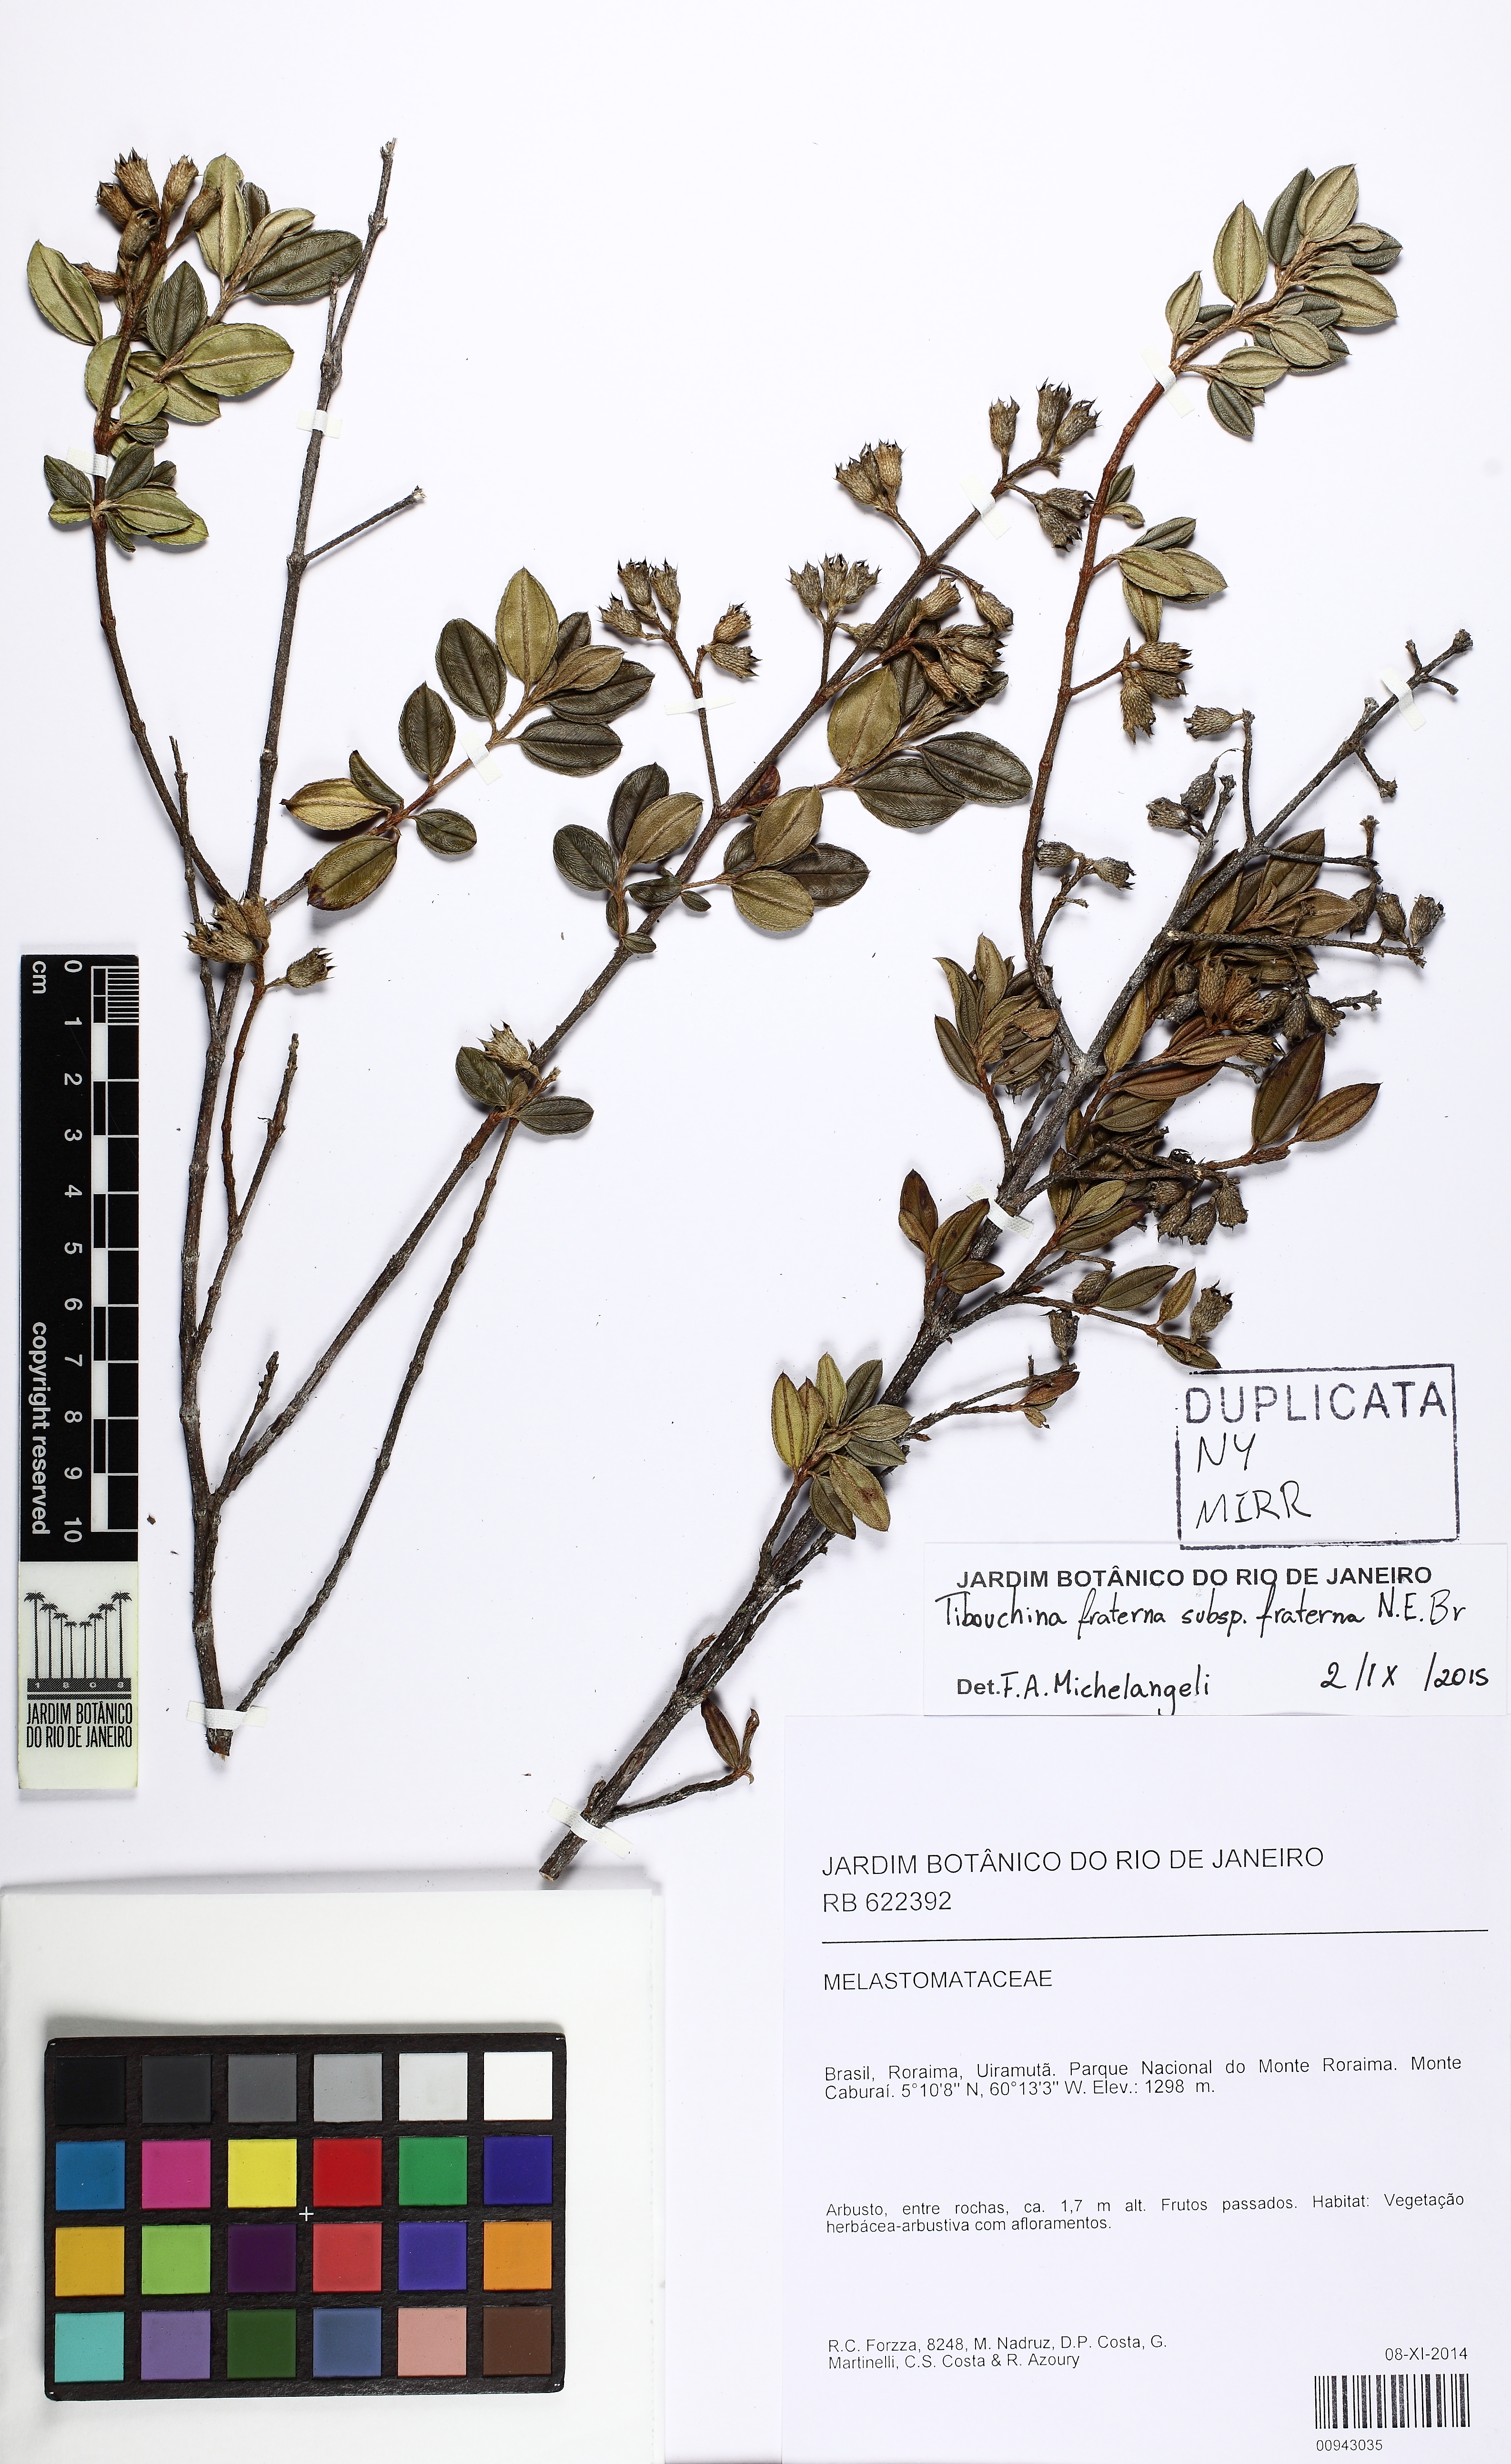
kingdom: Plantae
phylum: Tracheophyta
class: Magnoliopsida
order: Myrtales
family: Melastomataceae
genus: Tibouchina
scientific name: Tibouchina fraterna
